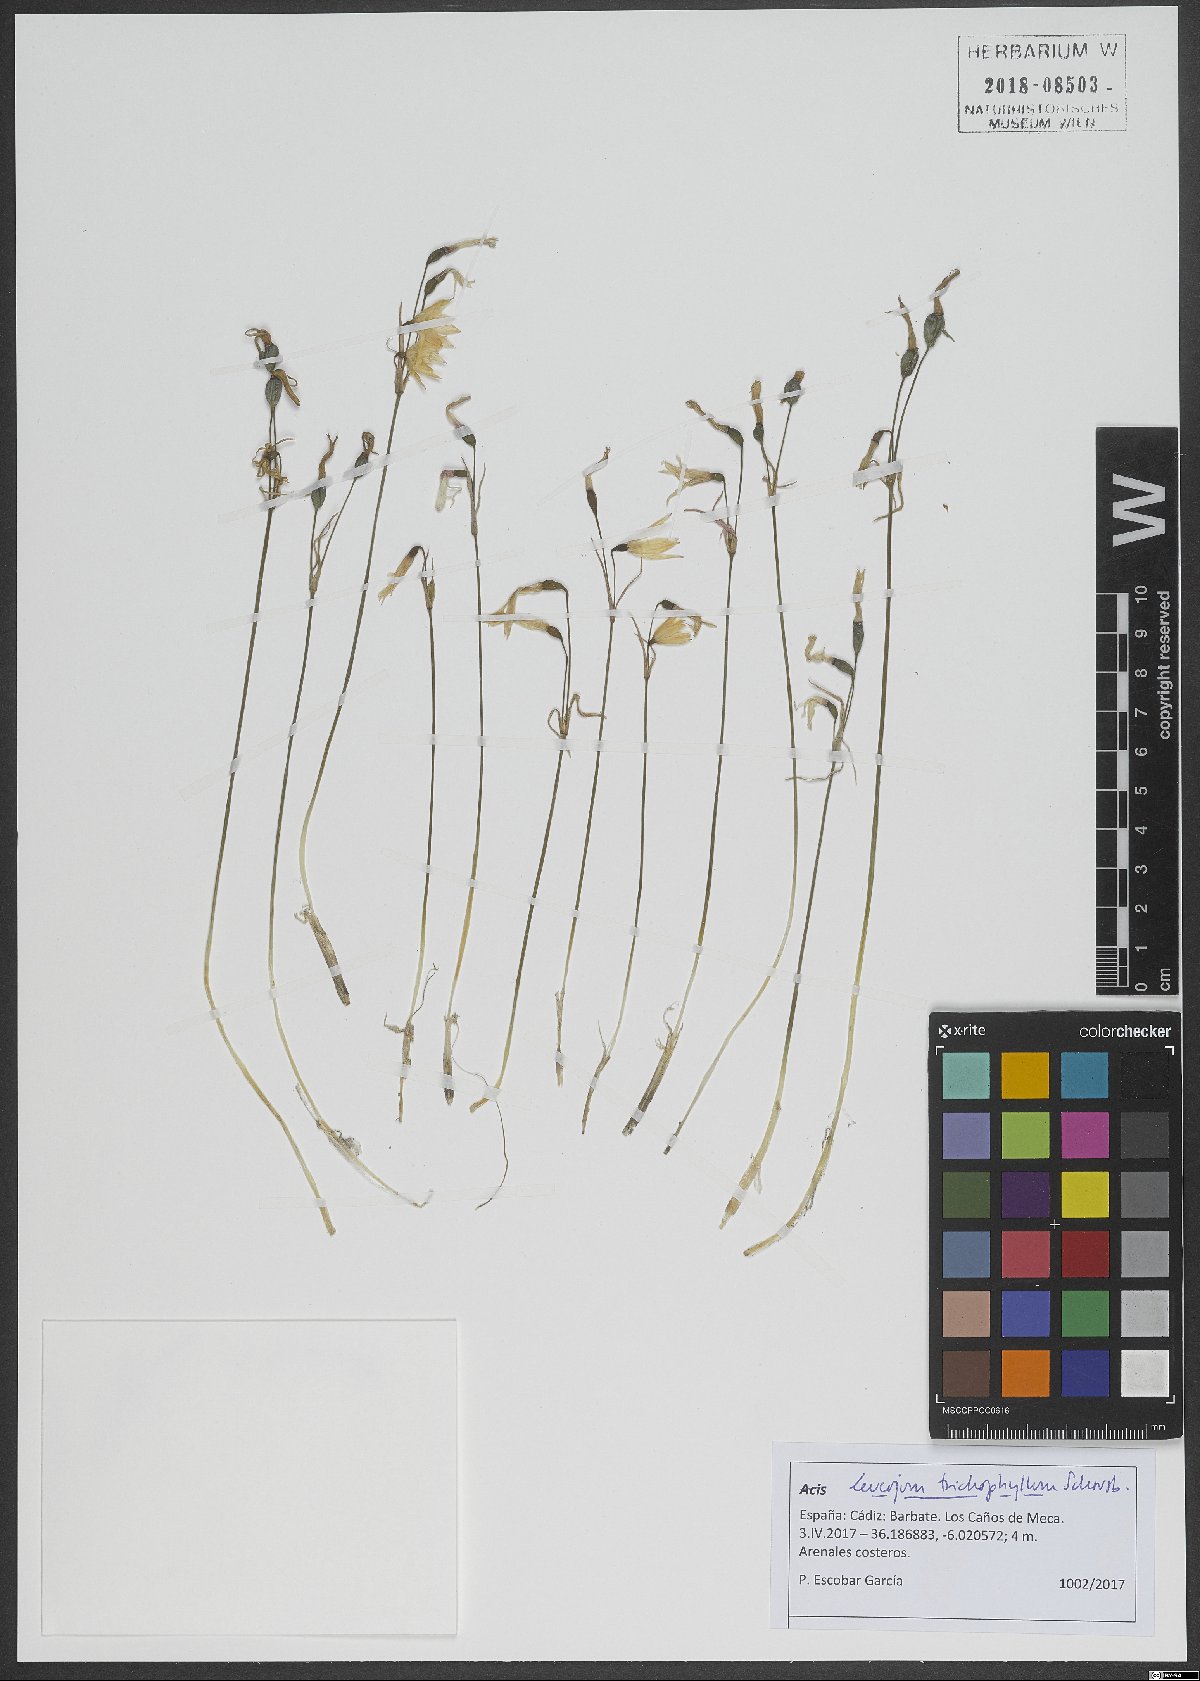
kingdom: Plantae
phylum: Tracheophyta
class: Liliopsida
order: Asparagales
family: Amaryllidaceae
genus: Acis
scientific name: Acis trichophylla
